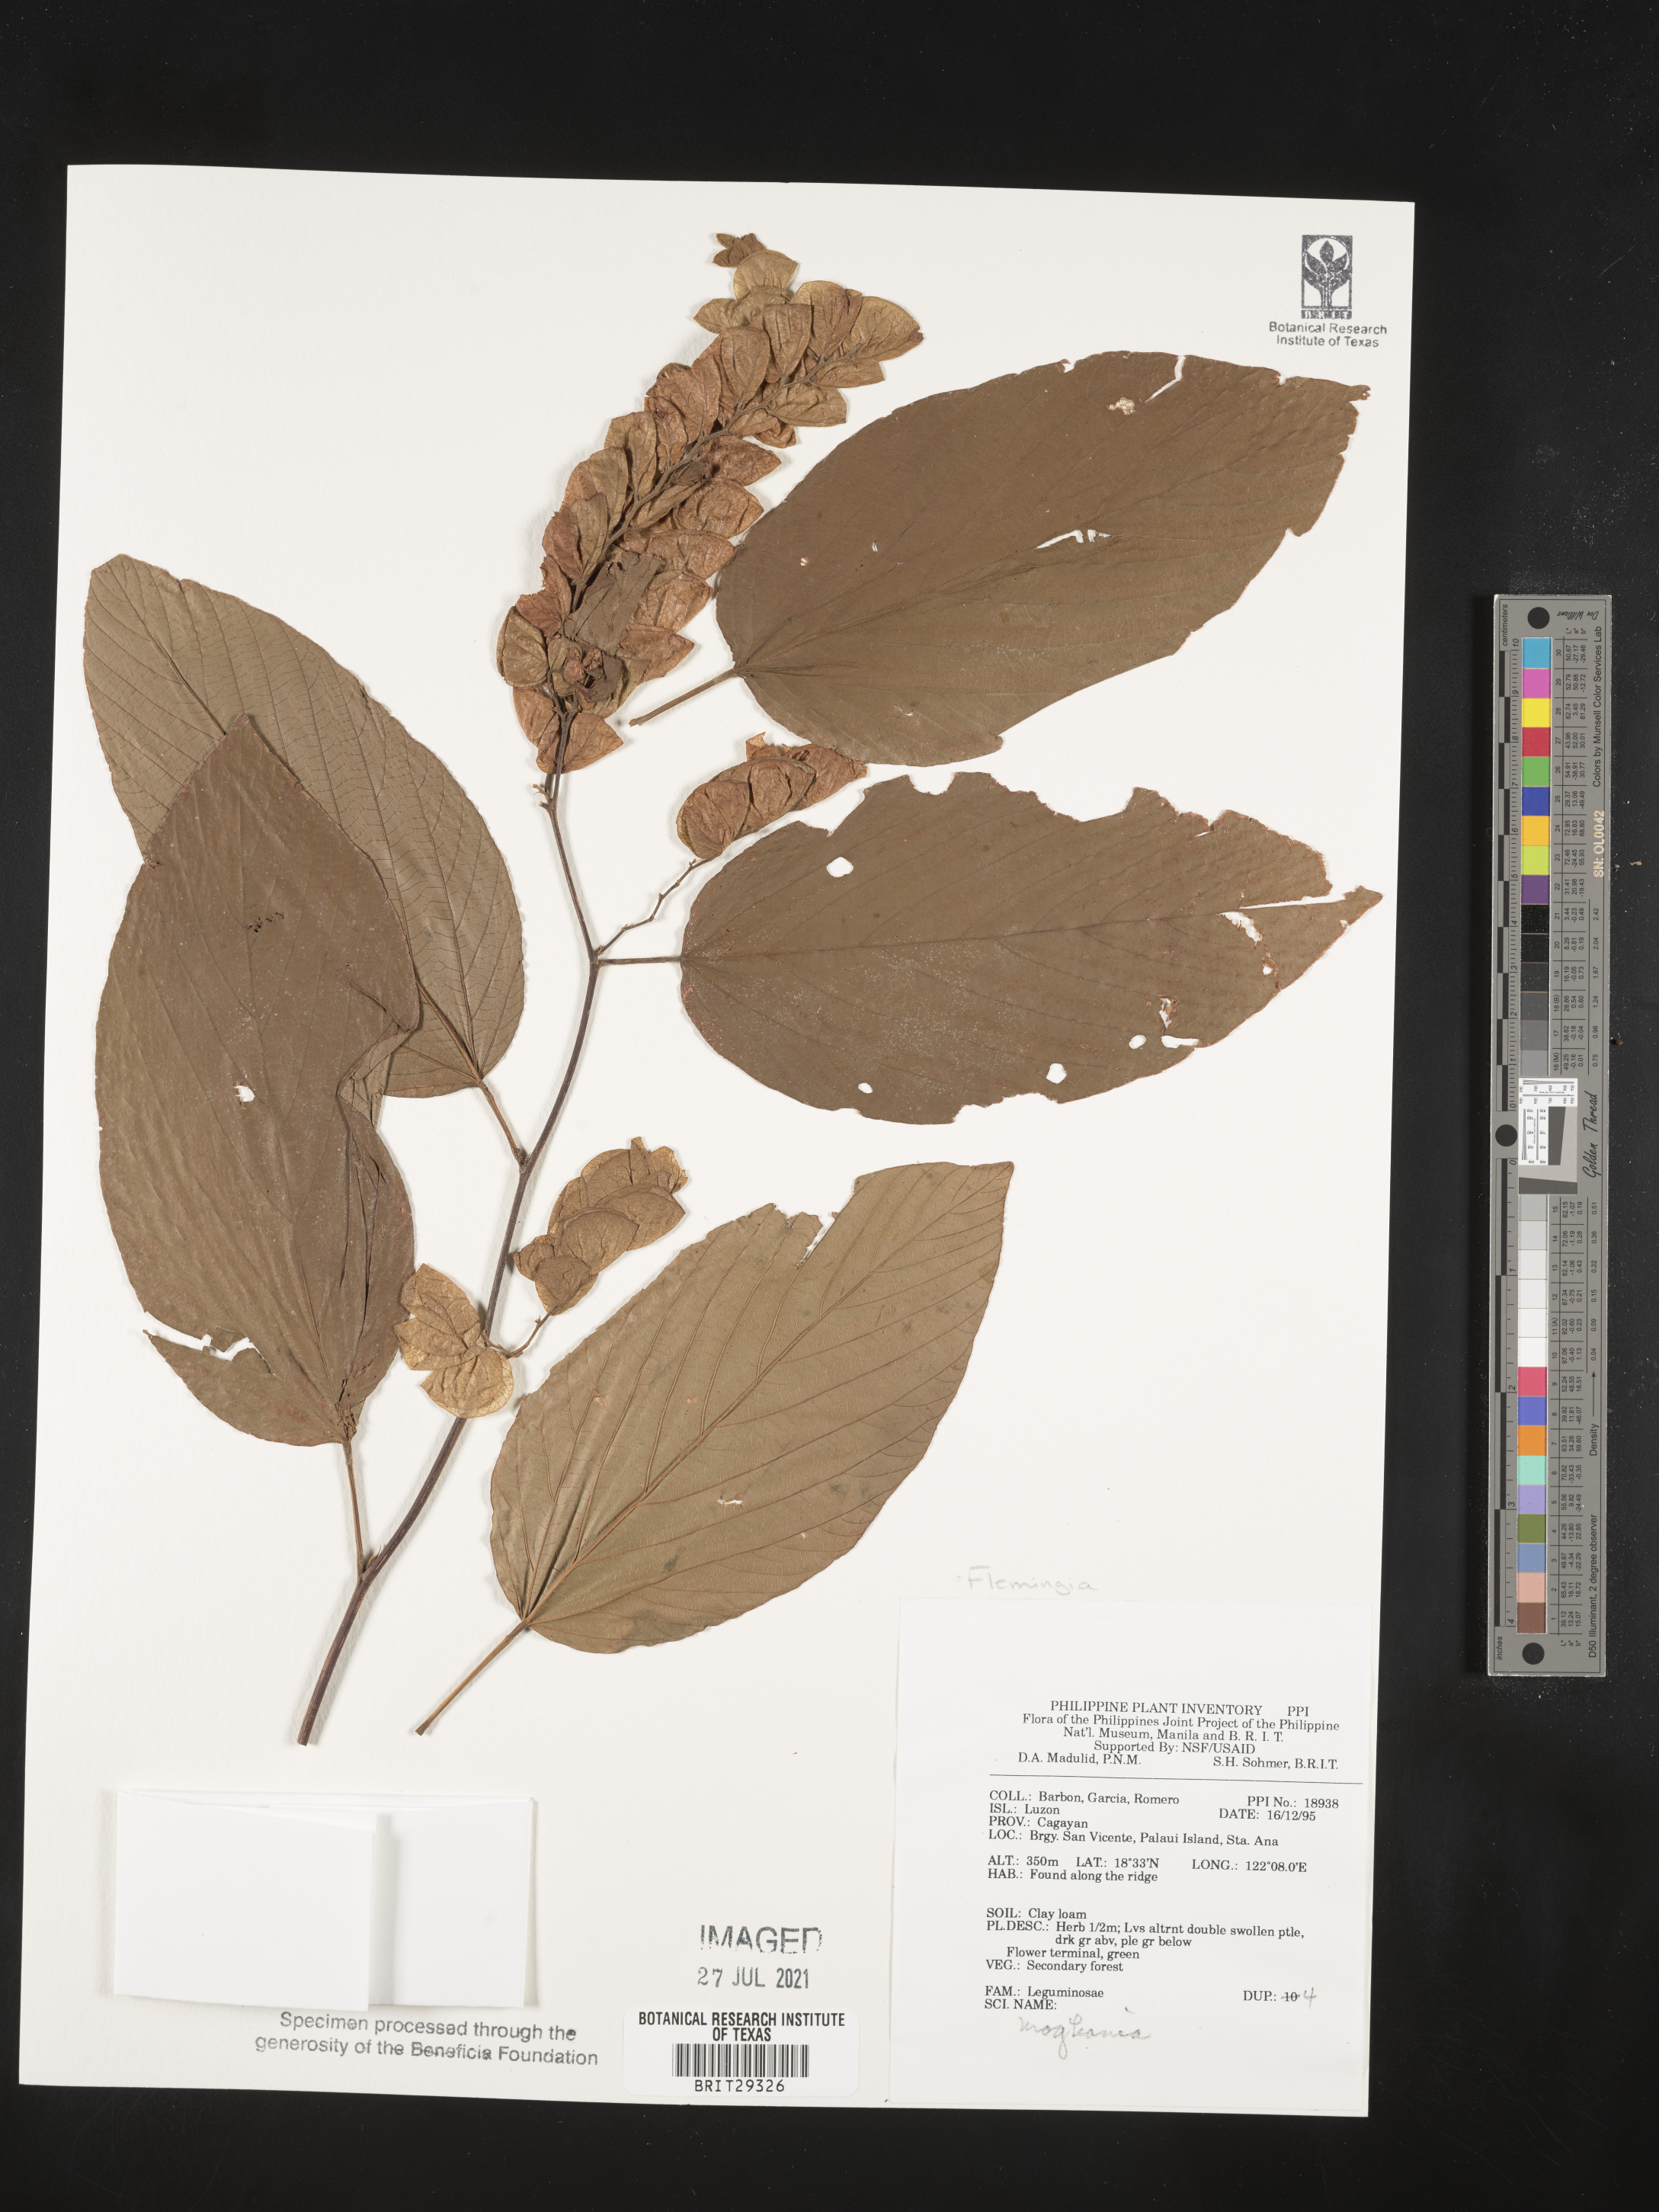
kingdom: Plantae
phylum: Tracheophyta
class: Magnoliopsida
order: Fabales
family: Fabaceae
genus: Flemingia
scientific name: Flemingia
